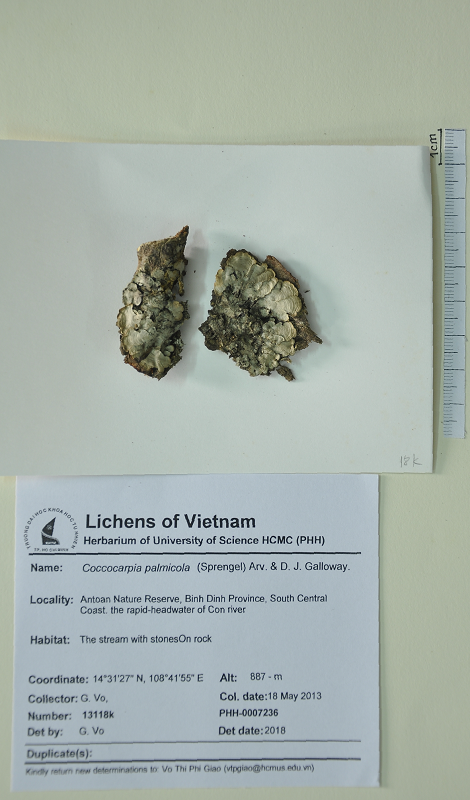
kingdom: Fungi
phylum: Ascomycota
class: Lecanoromycetes
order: Peltigerales
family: Coccocarpiaceae
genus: Coccocarpia
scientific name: Coccocarpia palmicola
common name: Salted shell lichen
